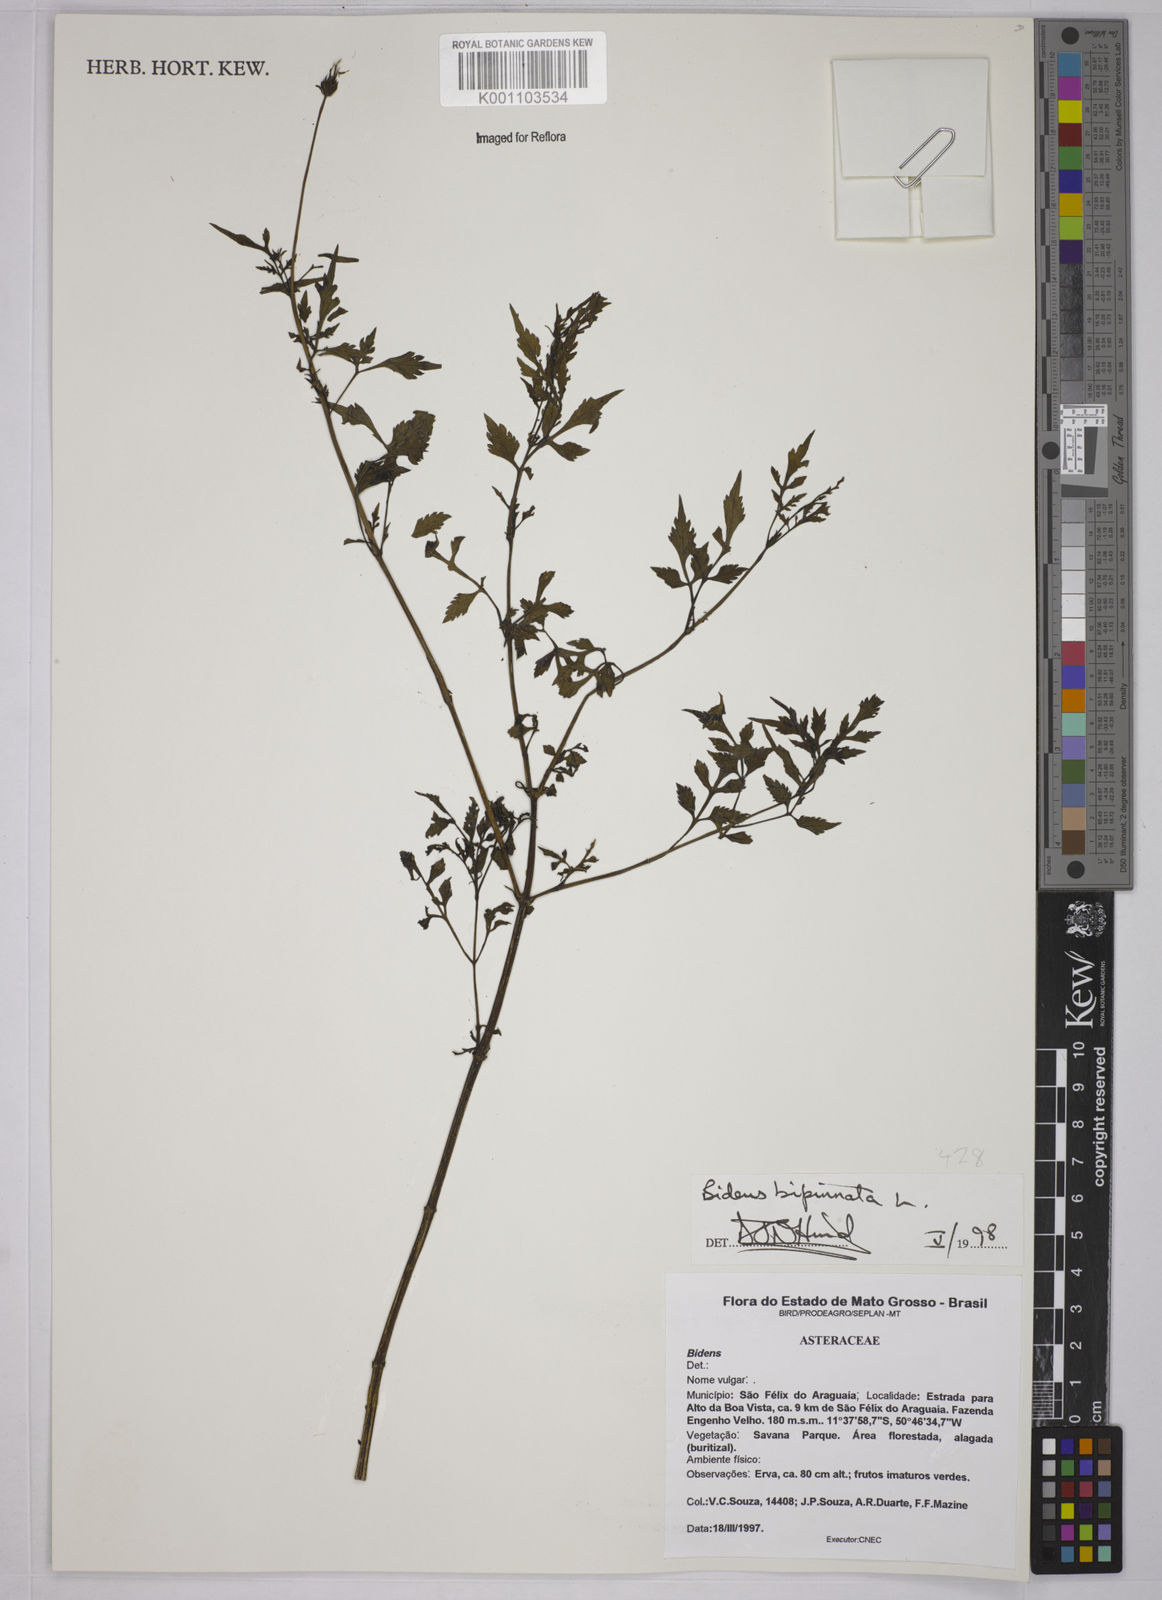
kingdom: Plantae
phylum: Tracheophyta
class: Magnoliopsida
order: Asterales
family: Asteraceae
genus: Bidens
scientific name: Bidens bipinnata
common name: Spanish-needles
